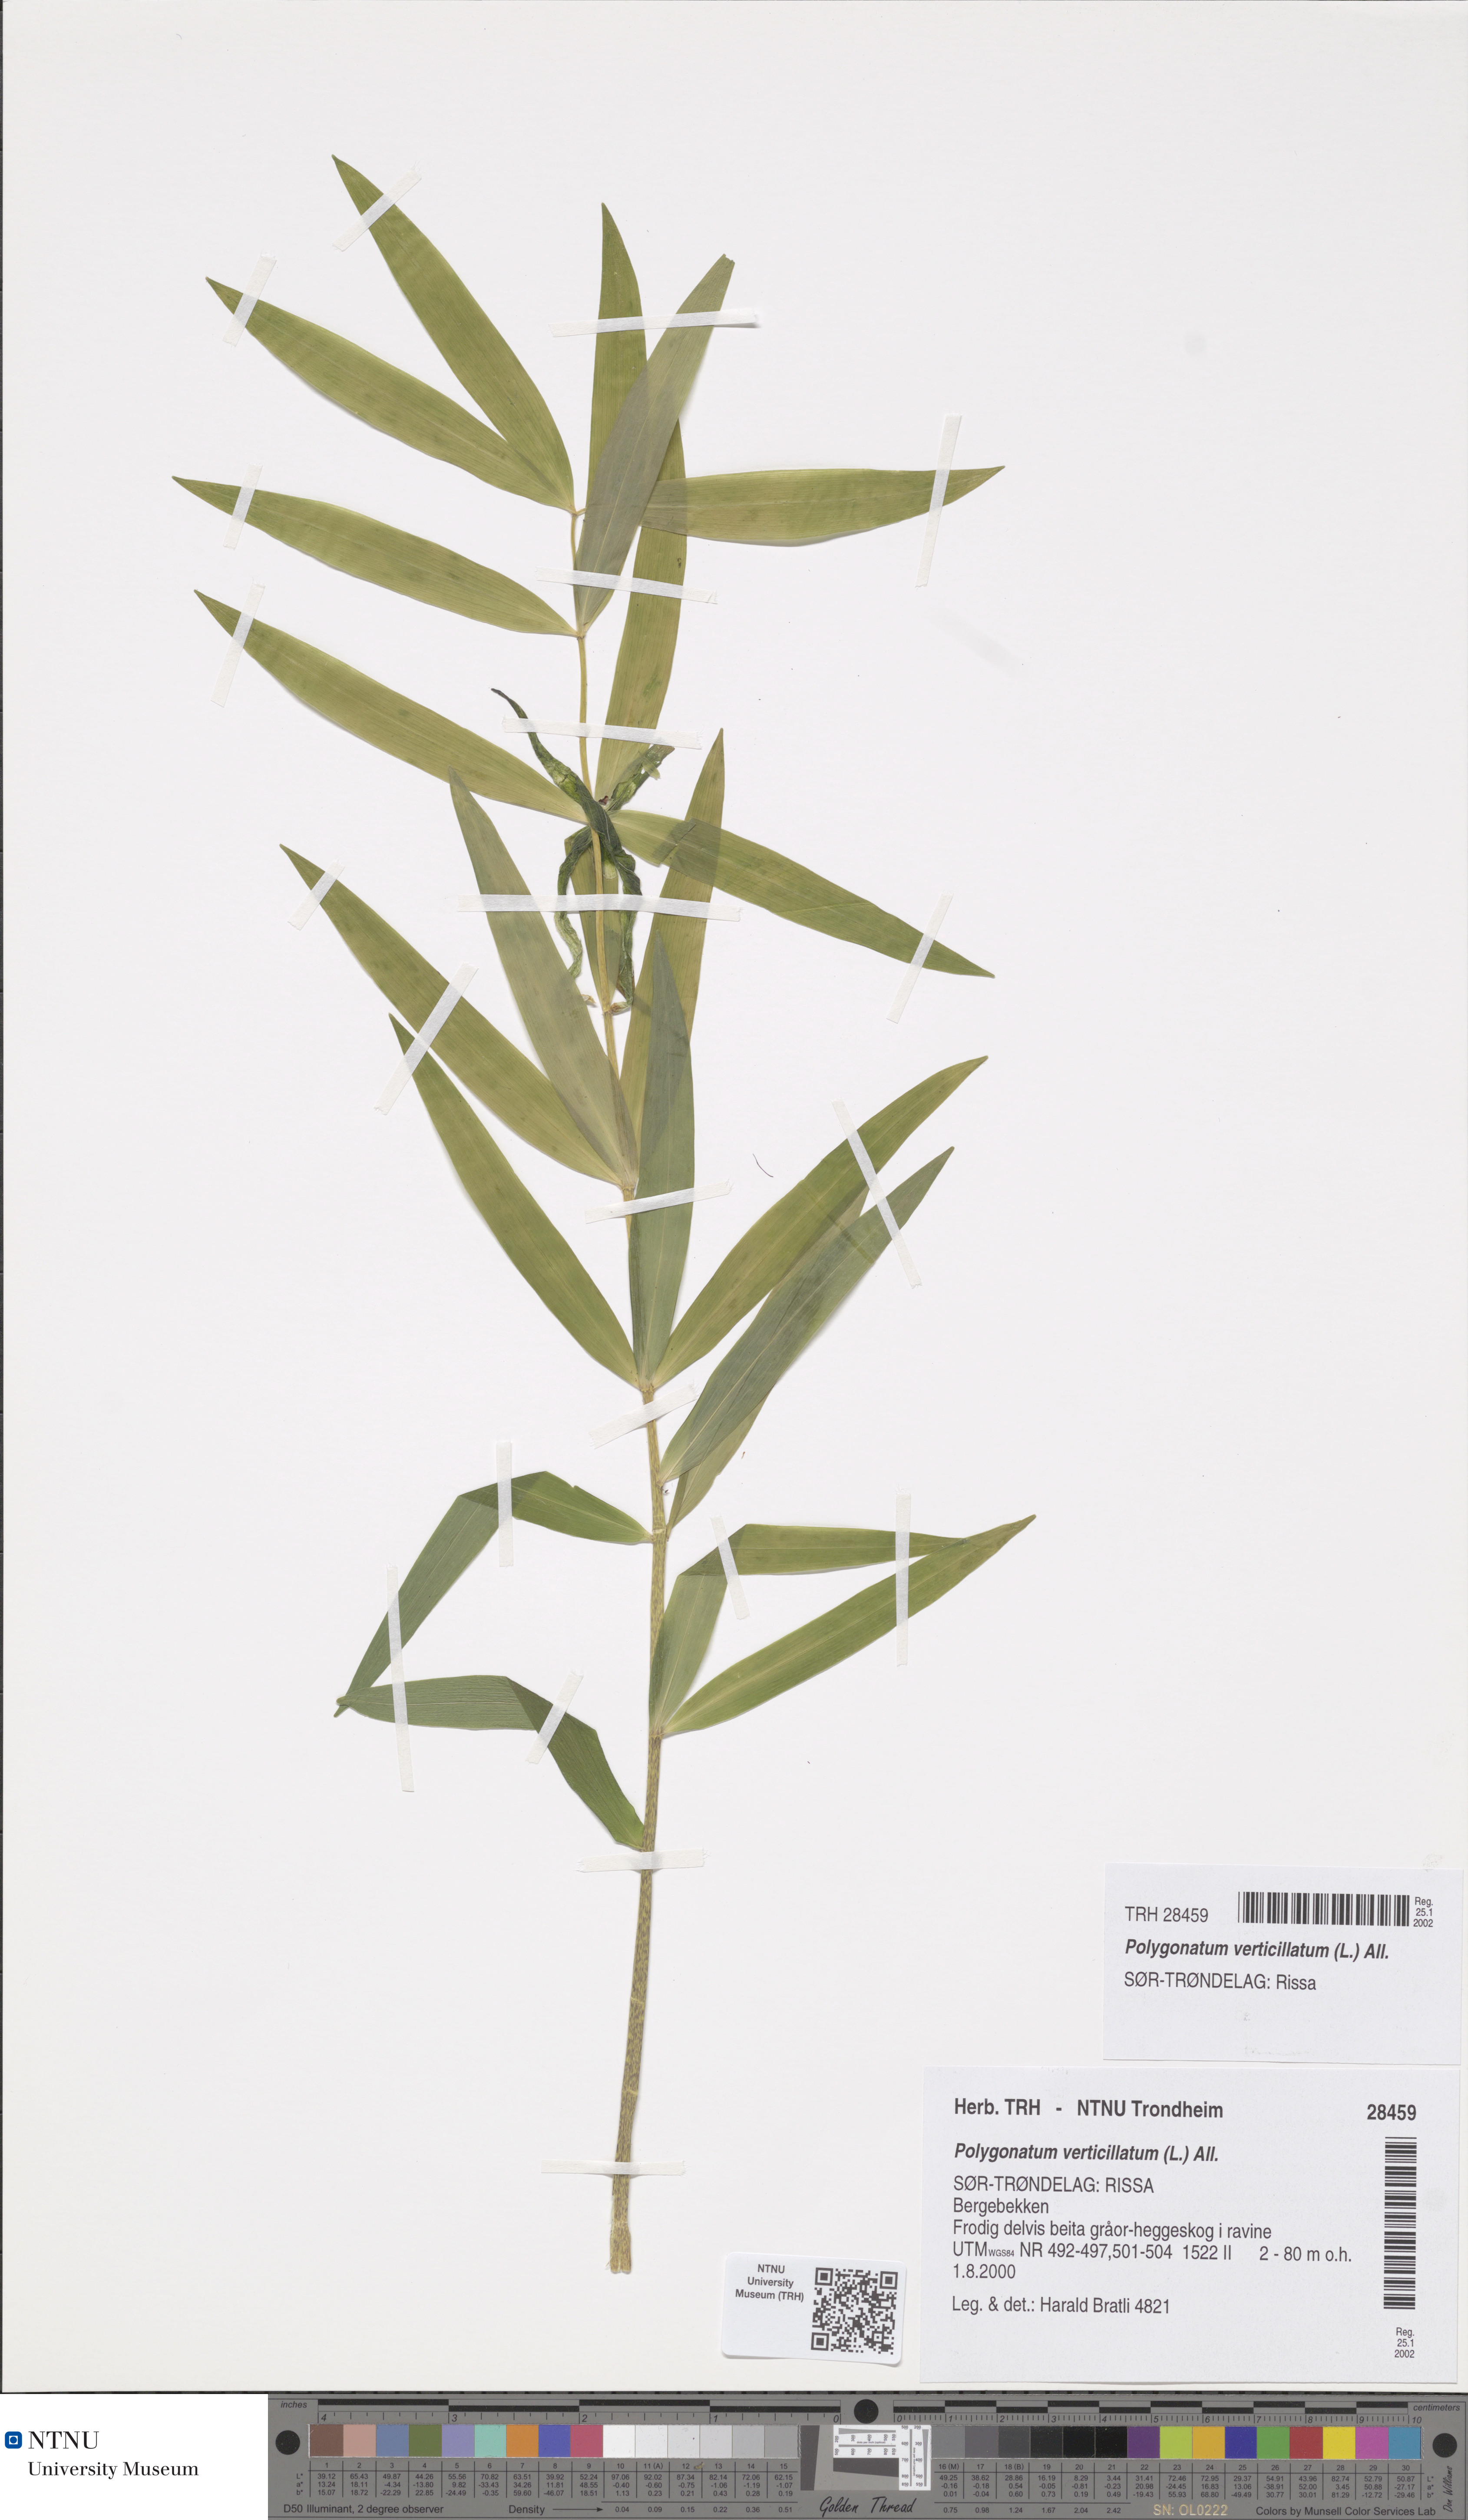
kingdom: Plantae
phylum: Tracheophyta
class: Liliopsida
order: Asparagales
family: Asparagaceae
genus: Polygonatum
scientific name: Polygonatum verticillatum
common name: Whorled solomon's-seal
